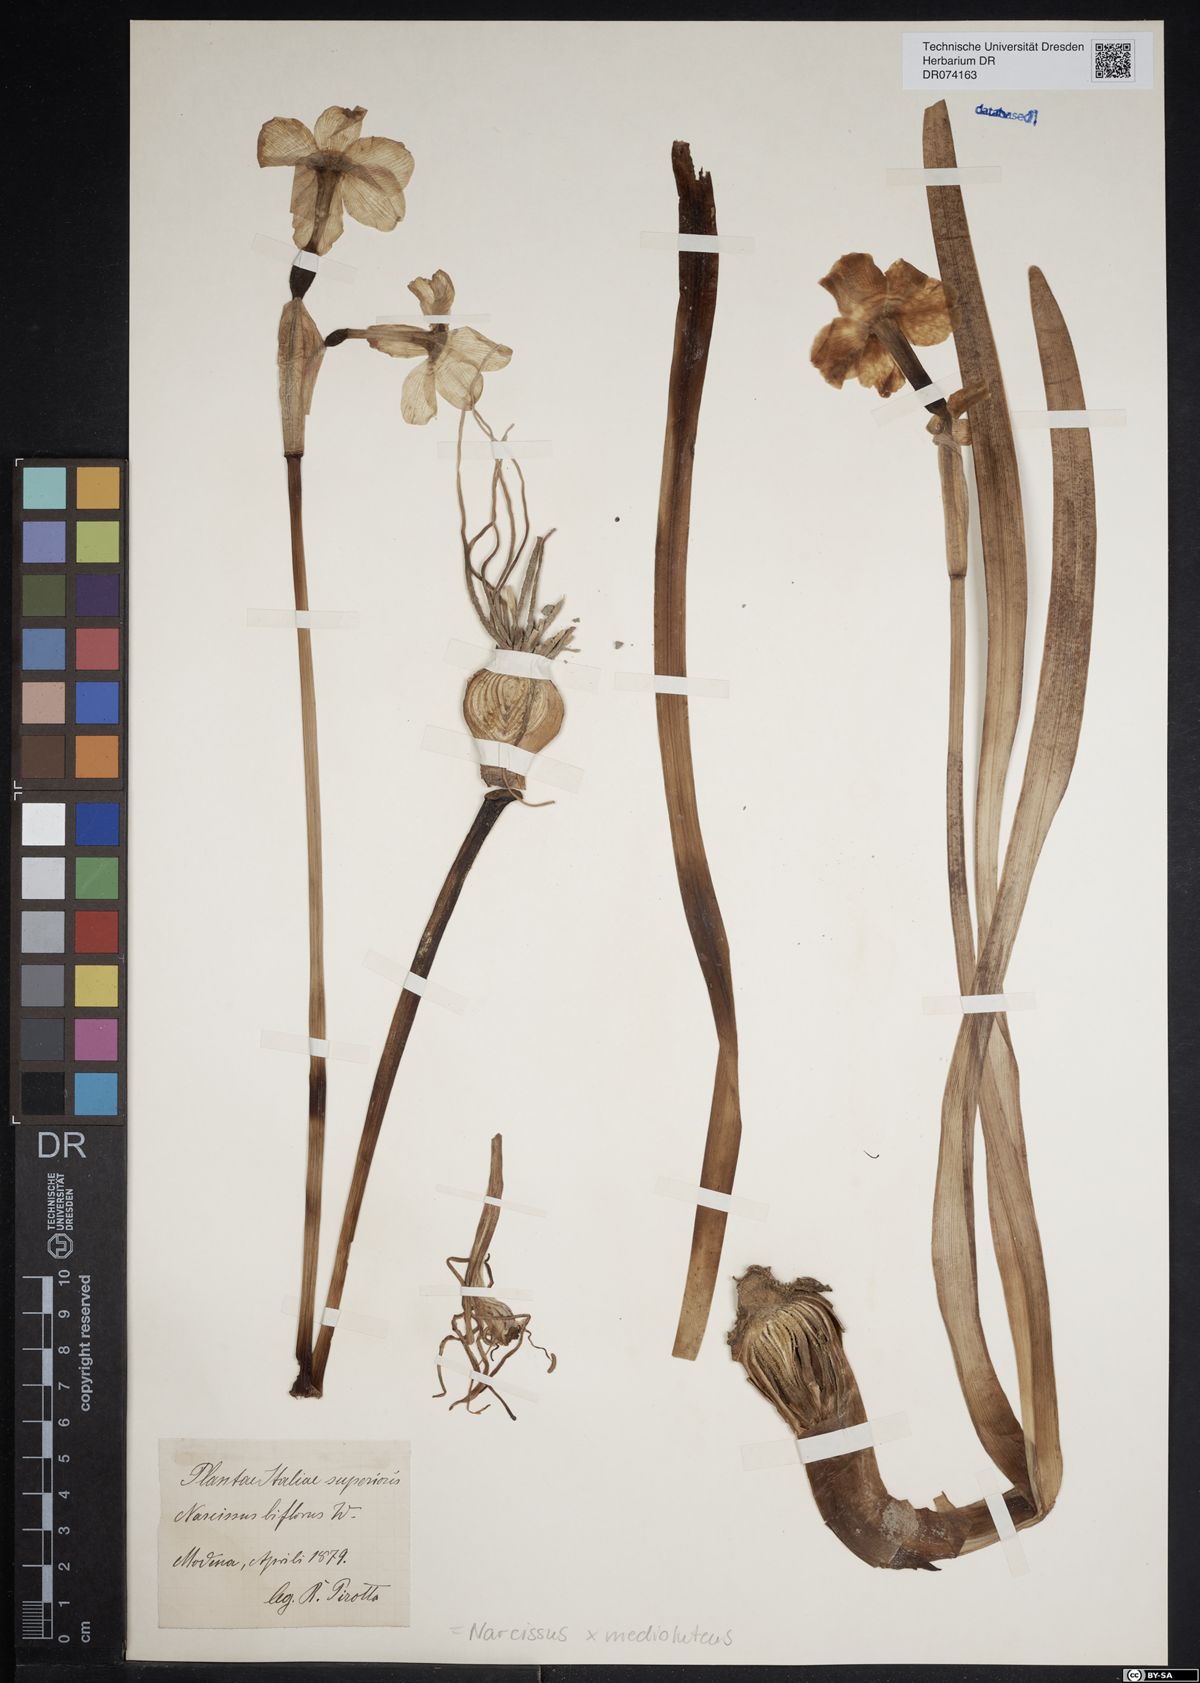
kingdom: Plantae
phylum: Tracheophyta
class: Liliopsida
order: Asparagales
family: Amaryllidaceae
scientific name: Amaryllidaceae
